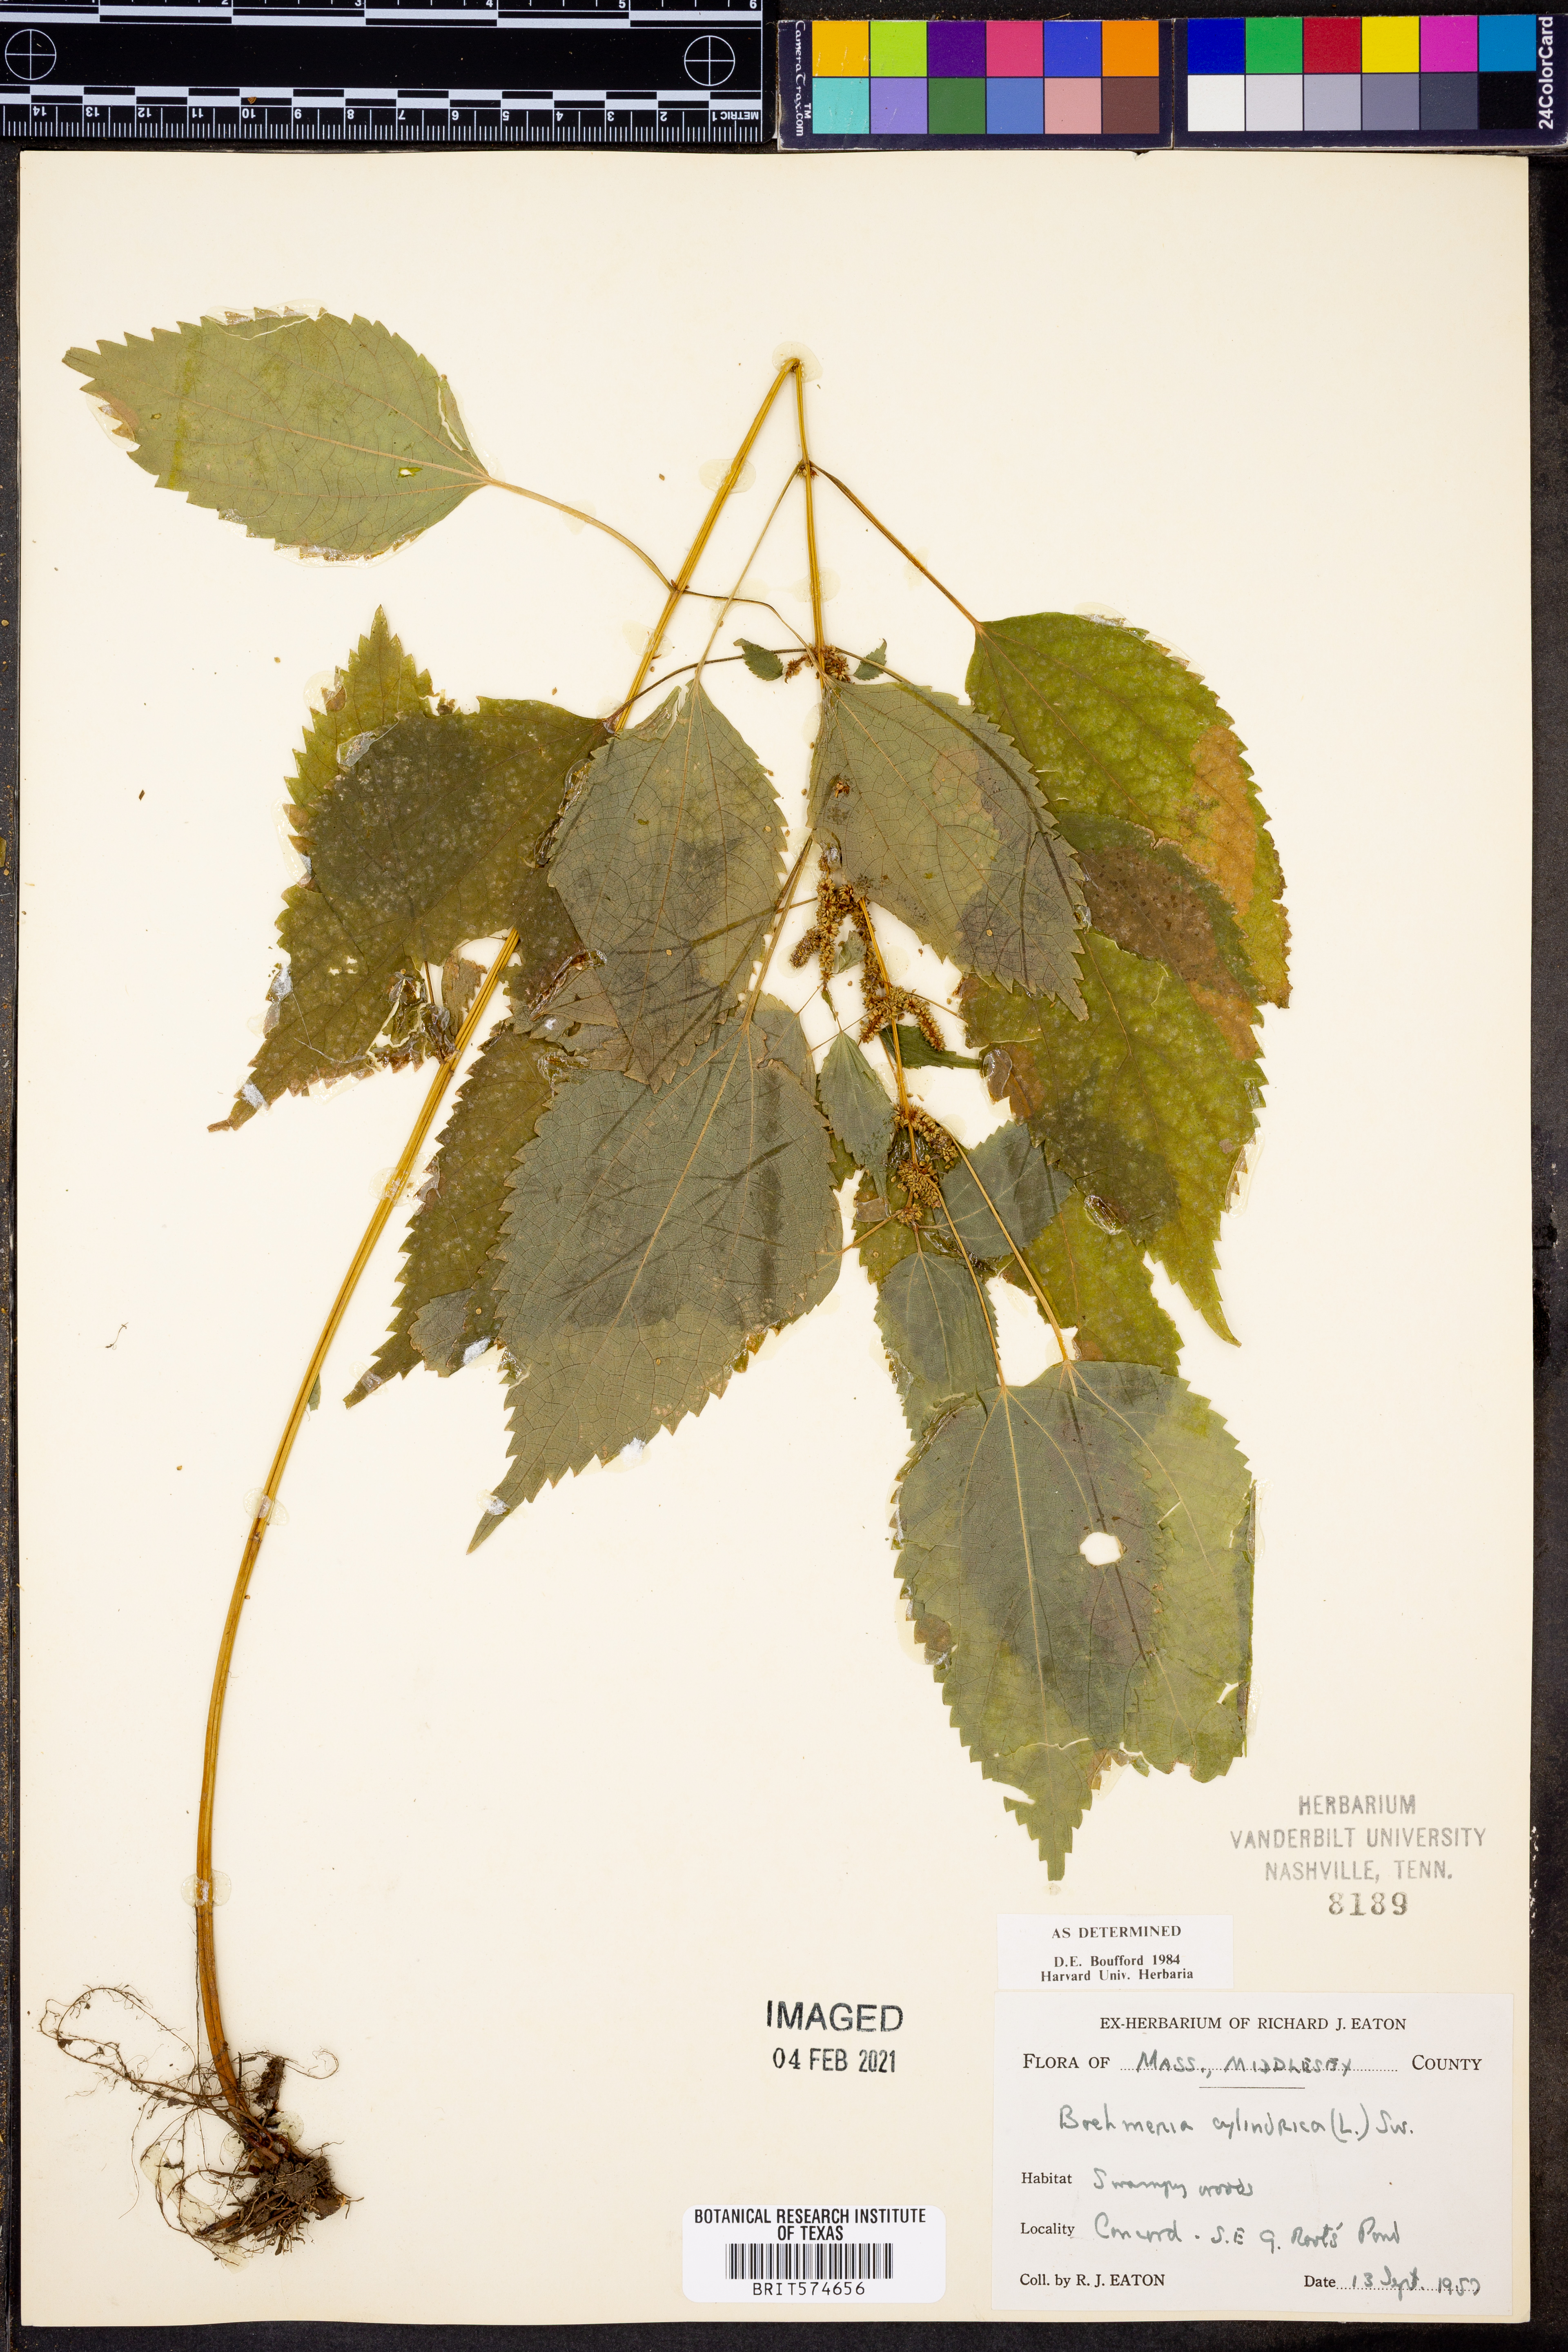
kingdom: Plantae
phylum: Tracheophyta
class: Magnoliopsida
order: Rosales
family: Urticaceae
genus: Boehmeria
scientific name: Boehmeria cylindrica
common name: Bog-hemp
